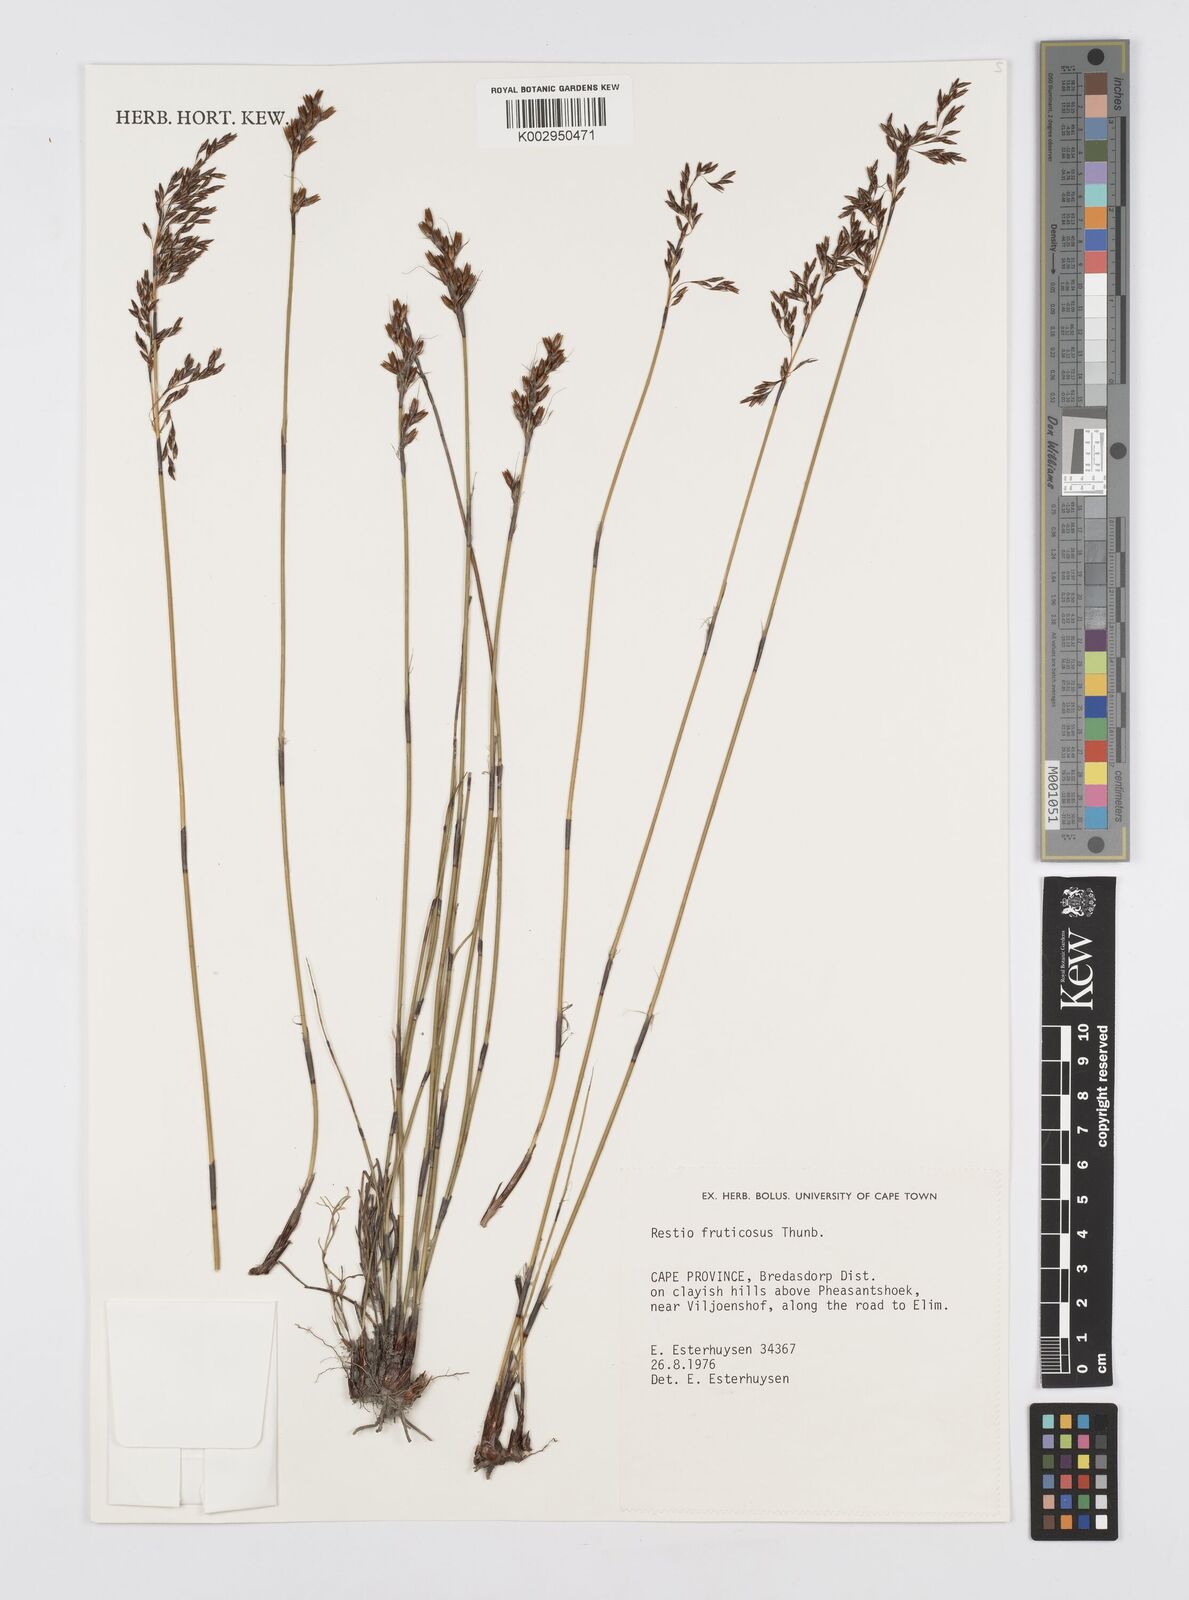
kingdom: Plantae
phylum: Tracheophyta
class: Liliopsida
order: Poales
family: Restionaceae
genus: Rhodocoma
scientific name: Rhodocoma fruticosa
